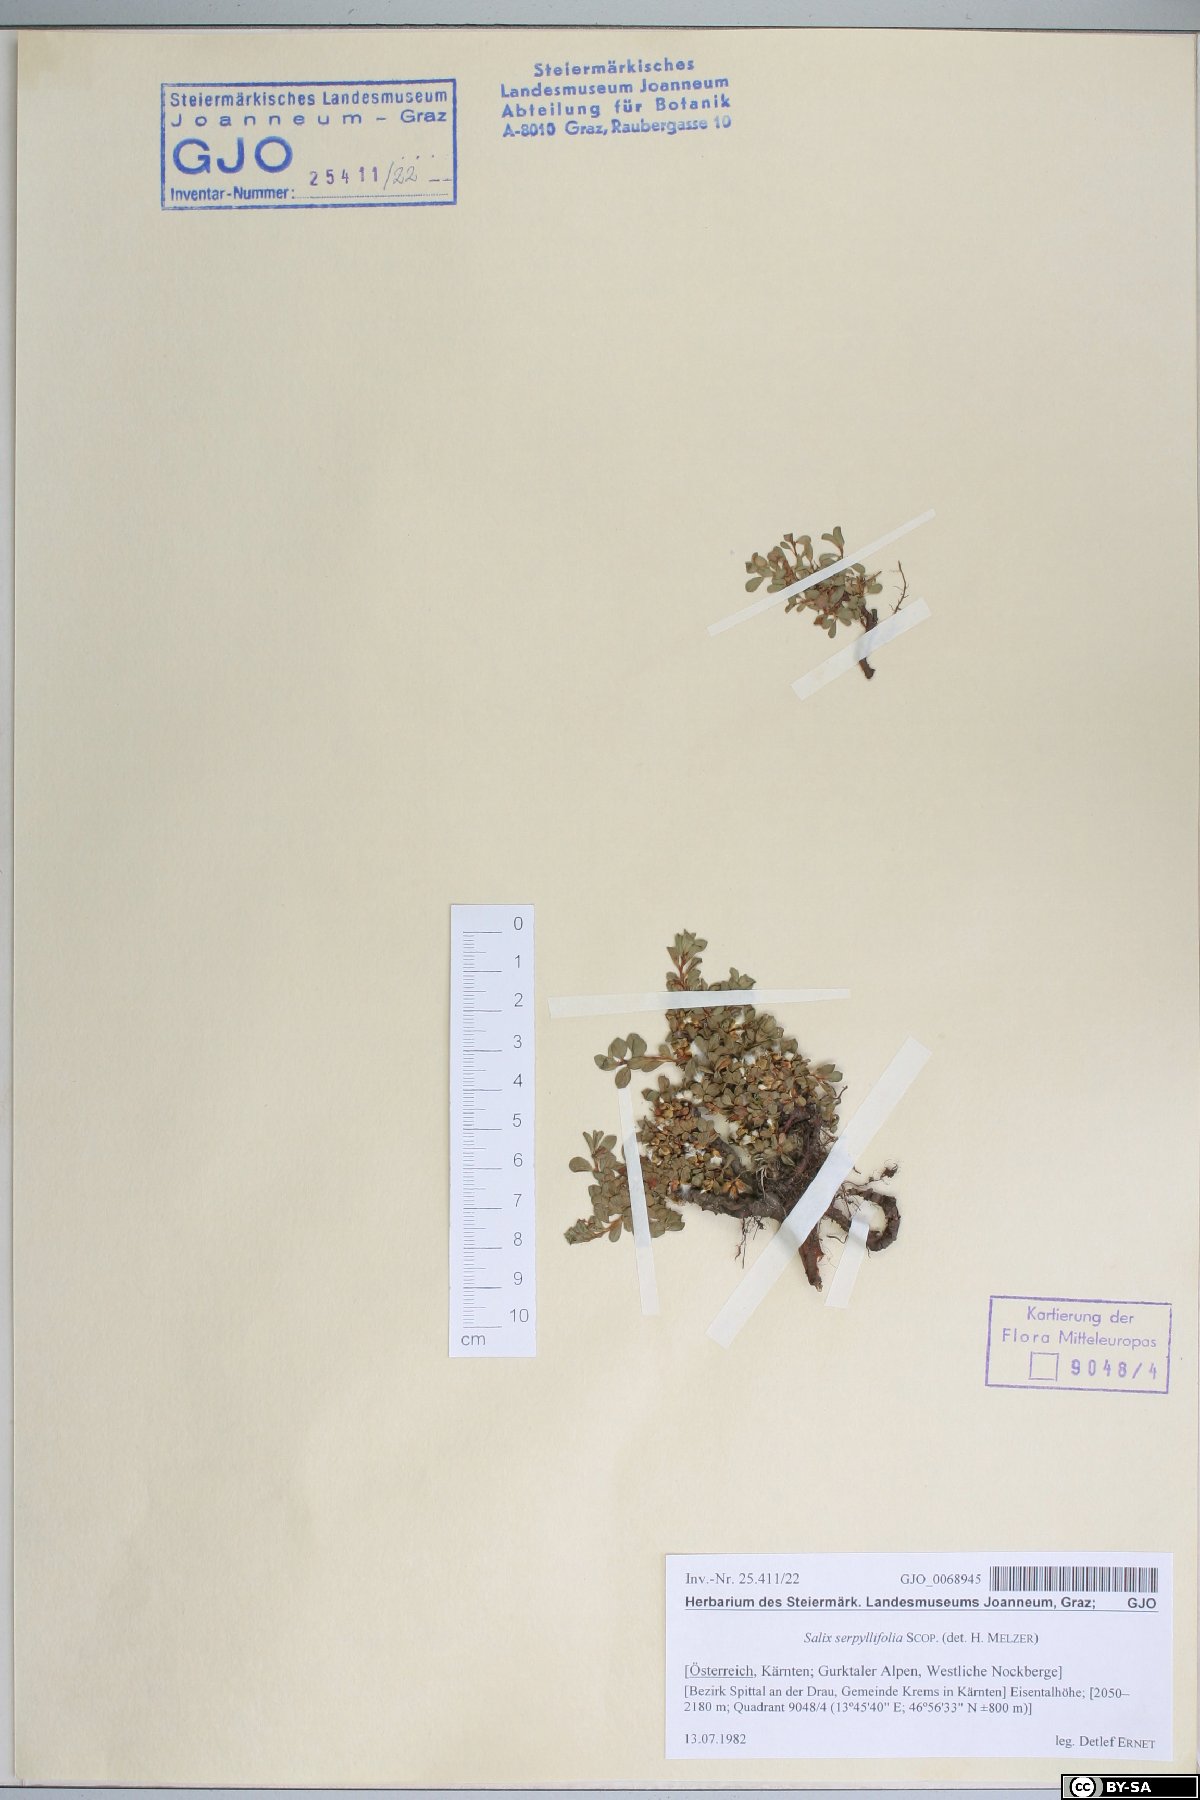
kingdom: Plantae
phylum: Tracheophyta
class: Magnoliopsida
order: Malpighiales
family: Salicaceae
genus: Salix
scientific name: Salix serpillifolia
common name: Thyme-leaf willow
